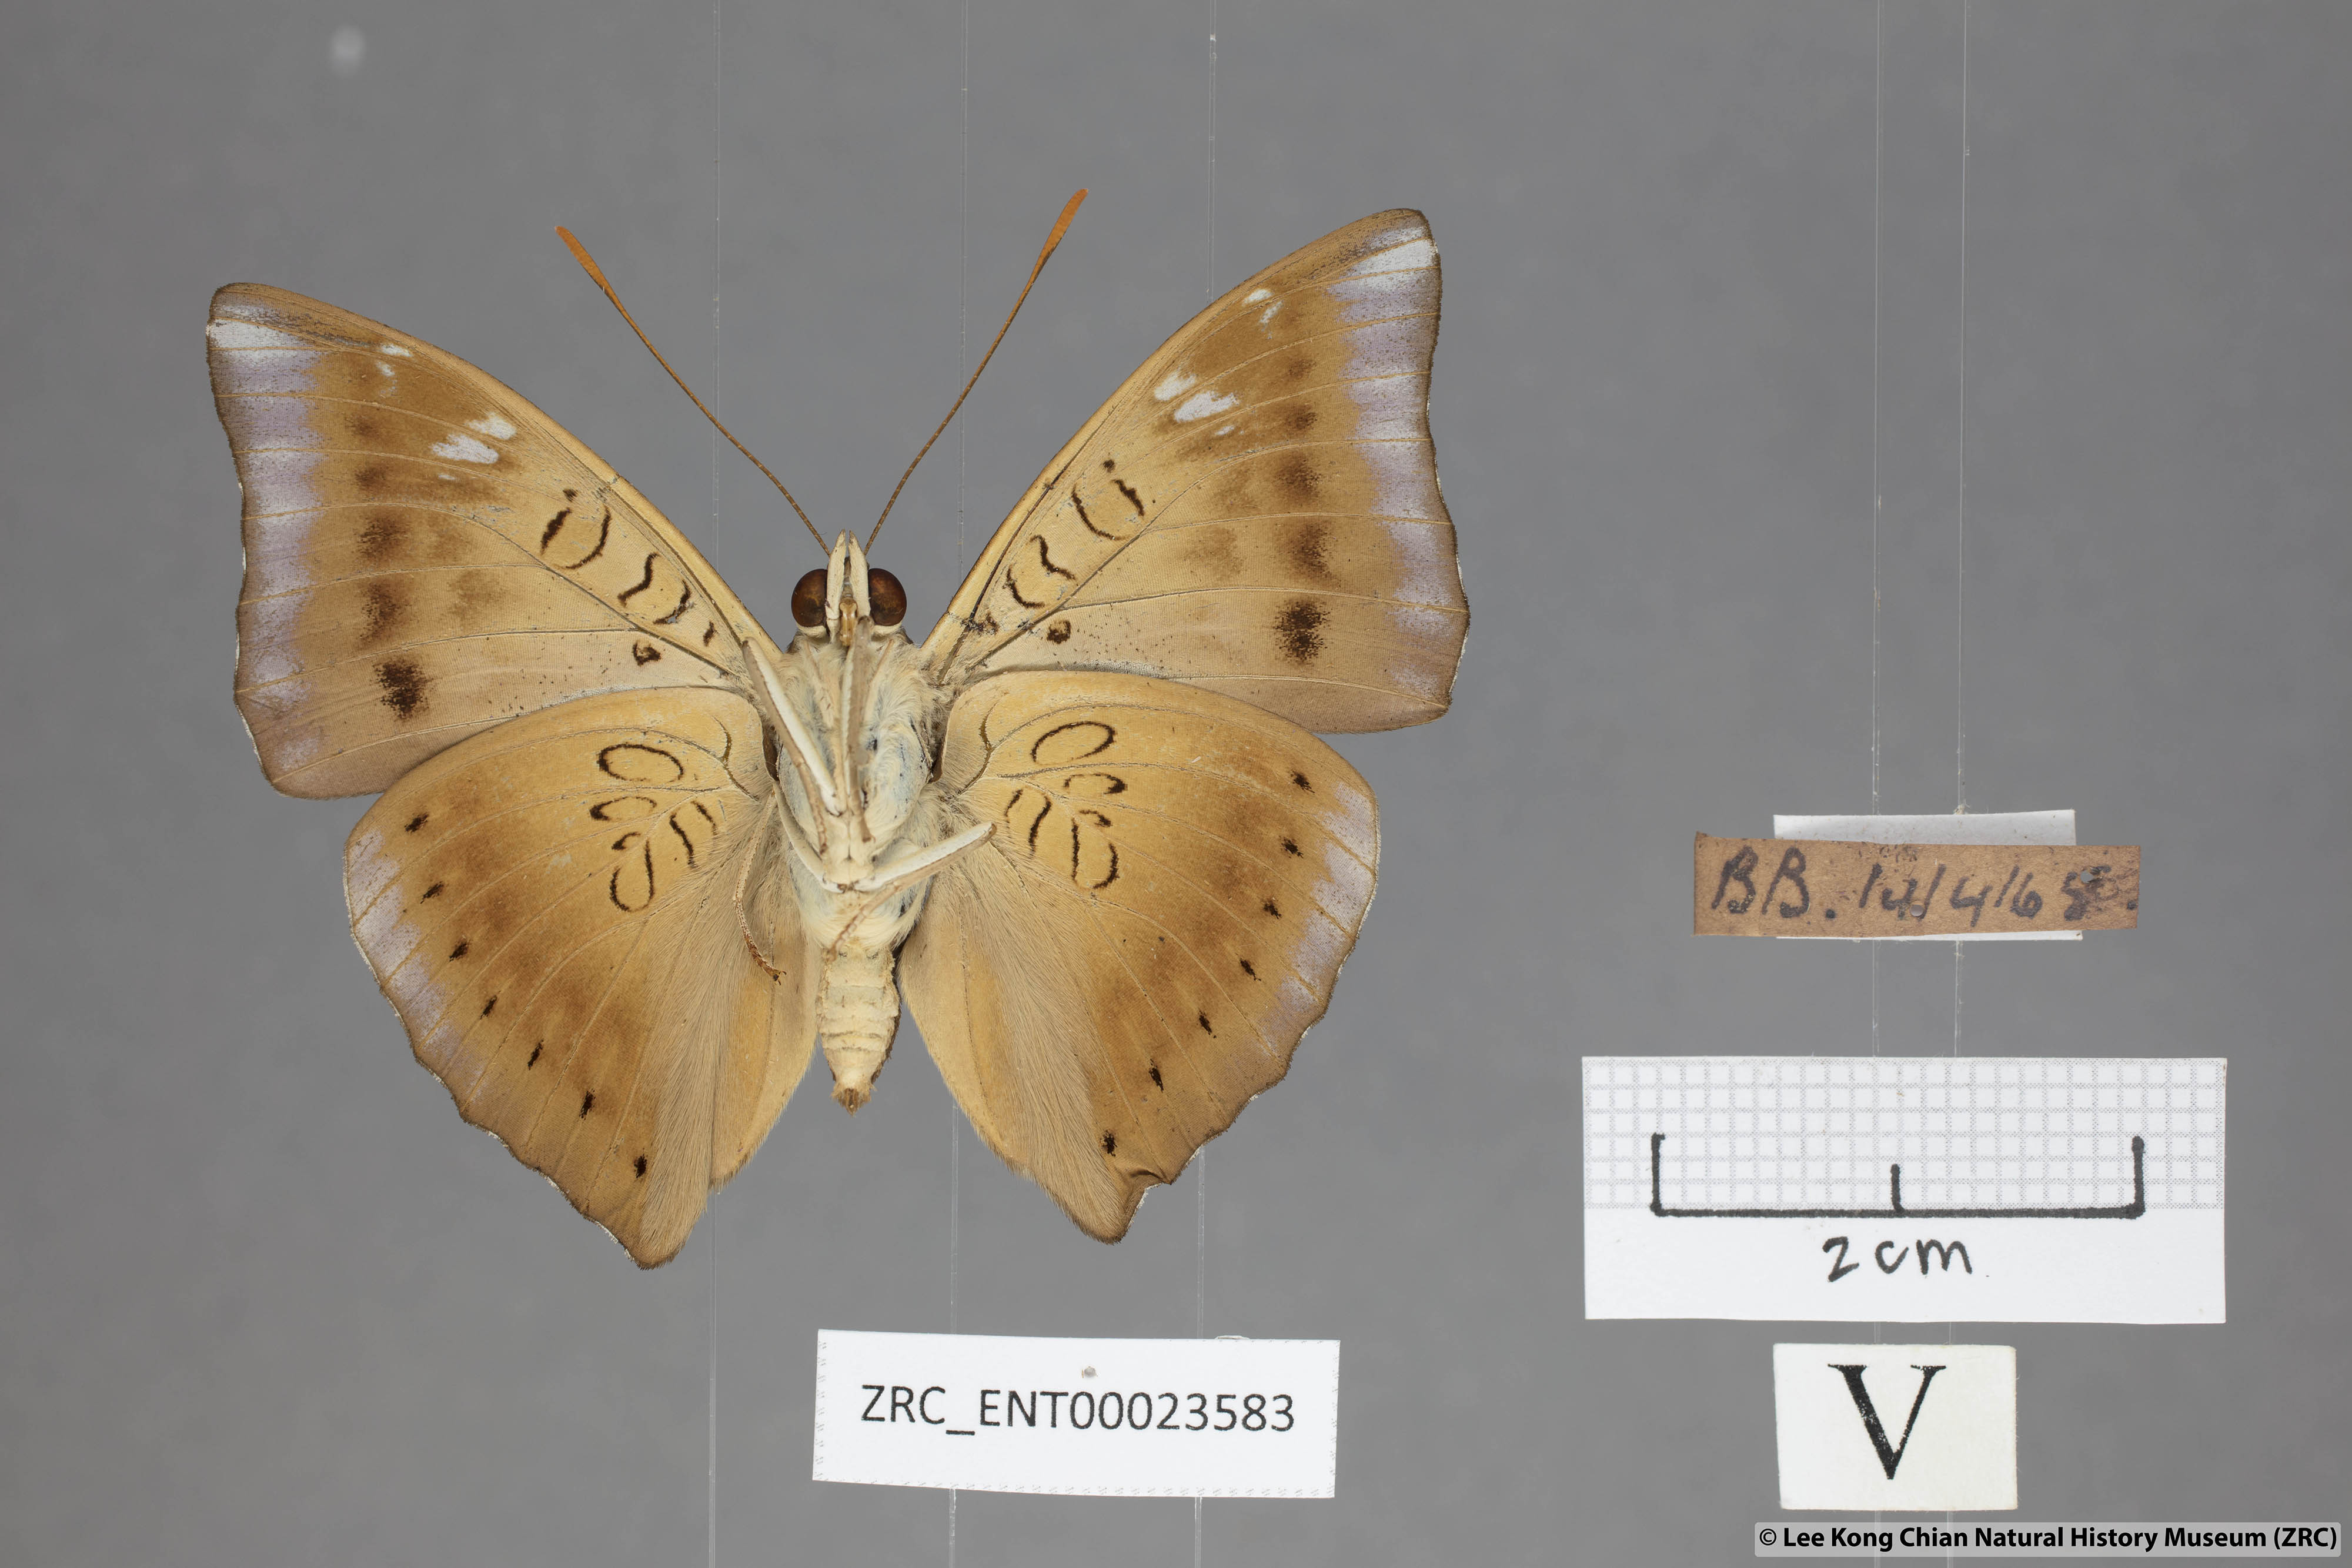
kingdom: Animalia
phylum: Arthropoda
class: Insecta
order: Lepidoptera
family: Nymphalidae
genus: Euthalia
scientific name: Euthalia aconthea
